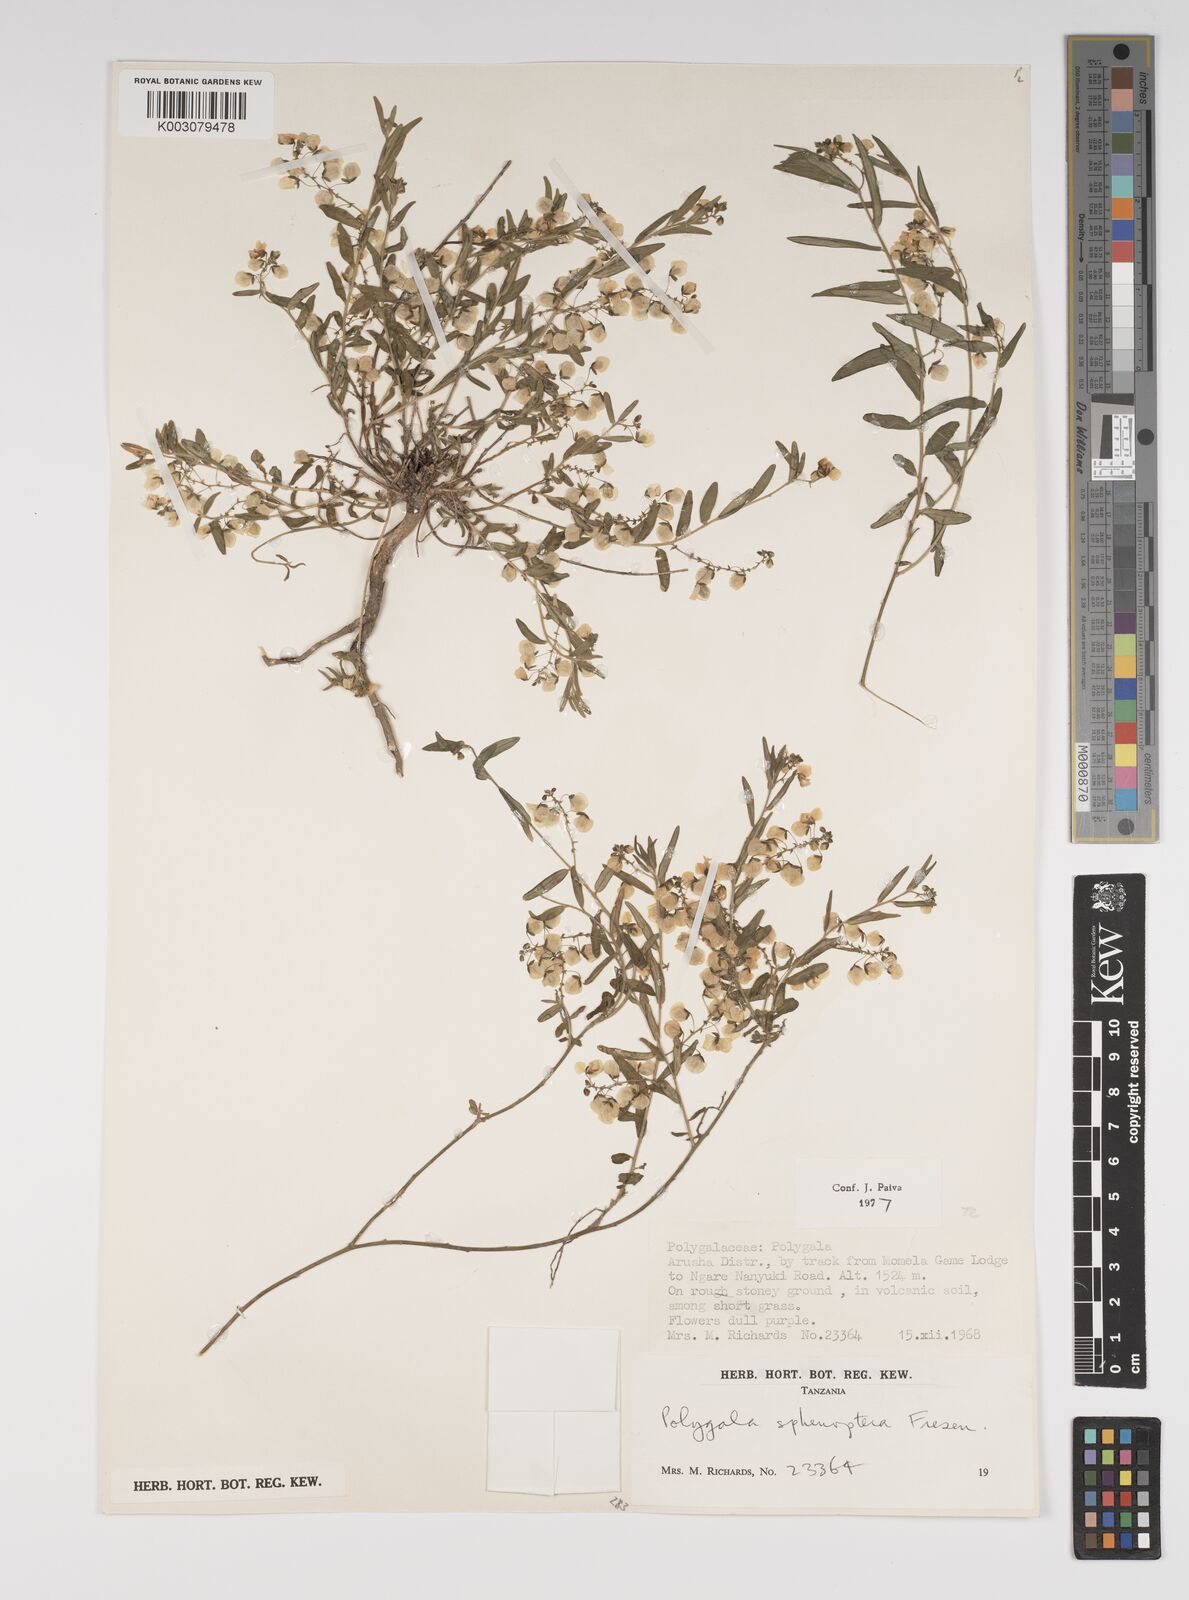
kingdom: Plantae
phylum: Tracheophyta
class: Magnoliopsida
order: Fabales
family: Polygalaceae
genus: Polygala
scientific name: Polygala sphenoptera
